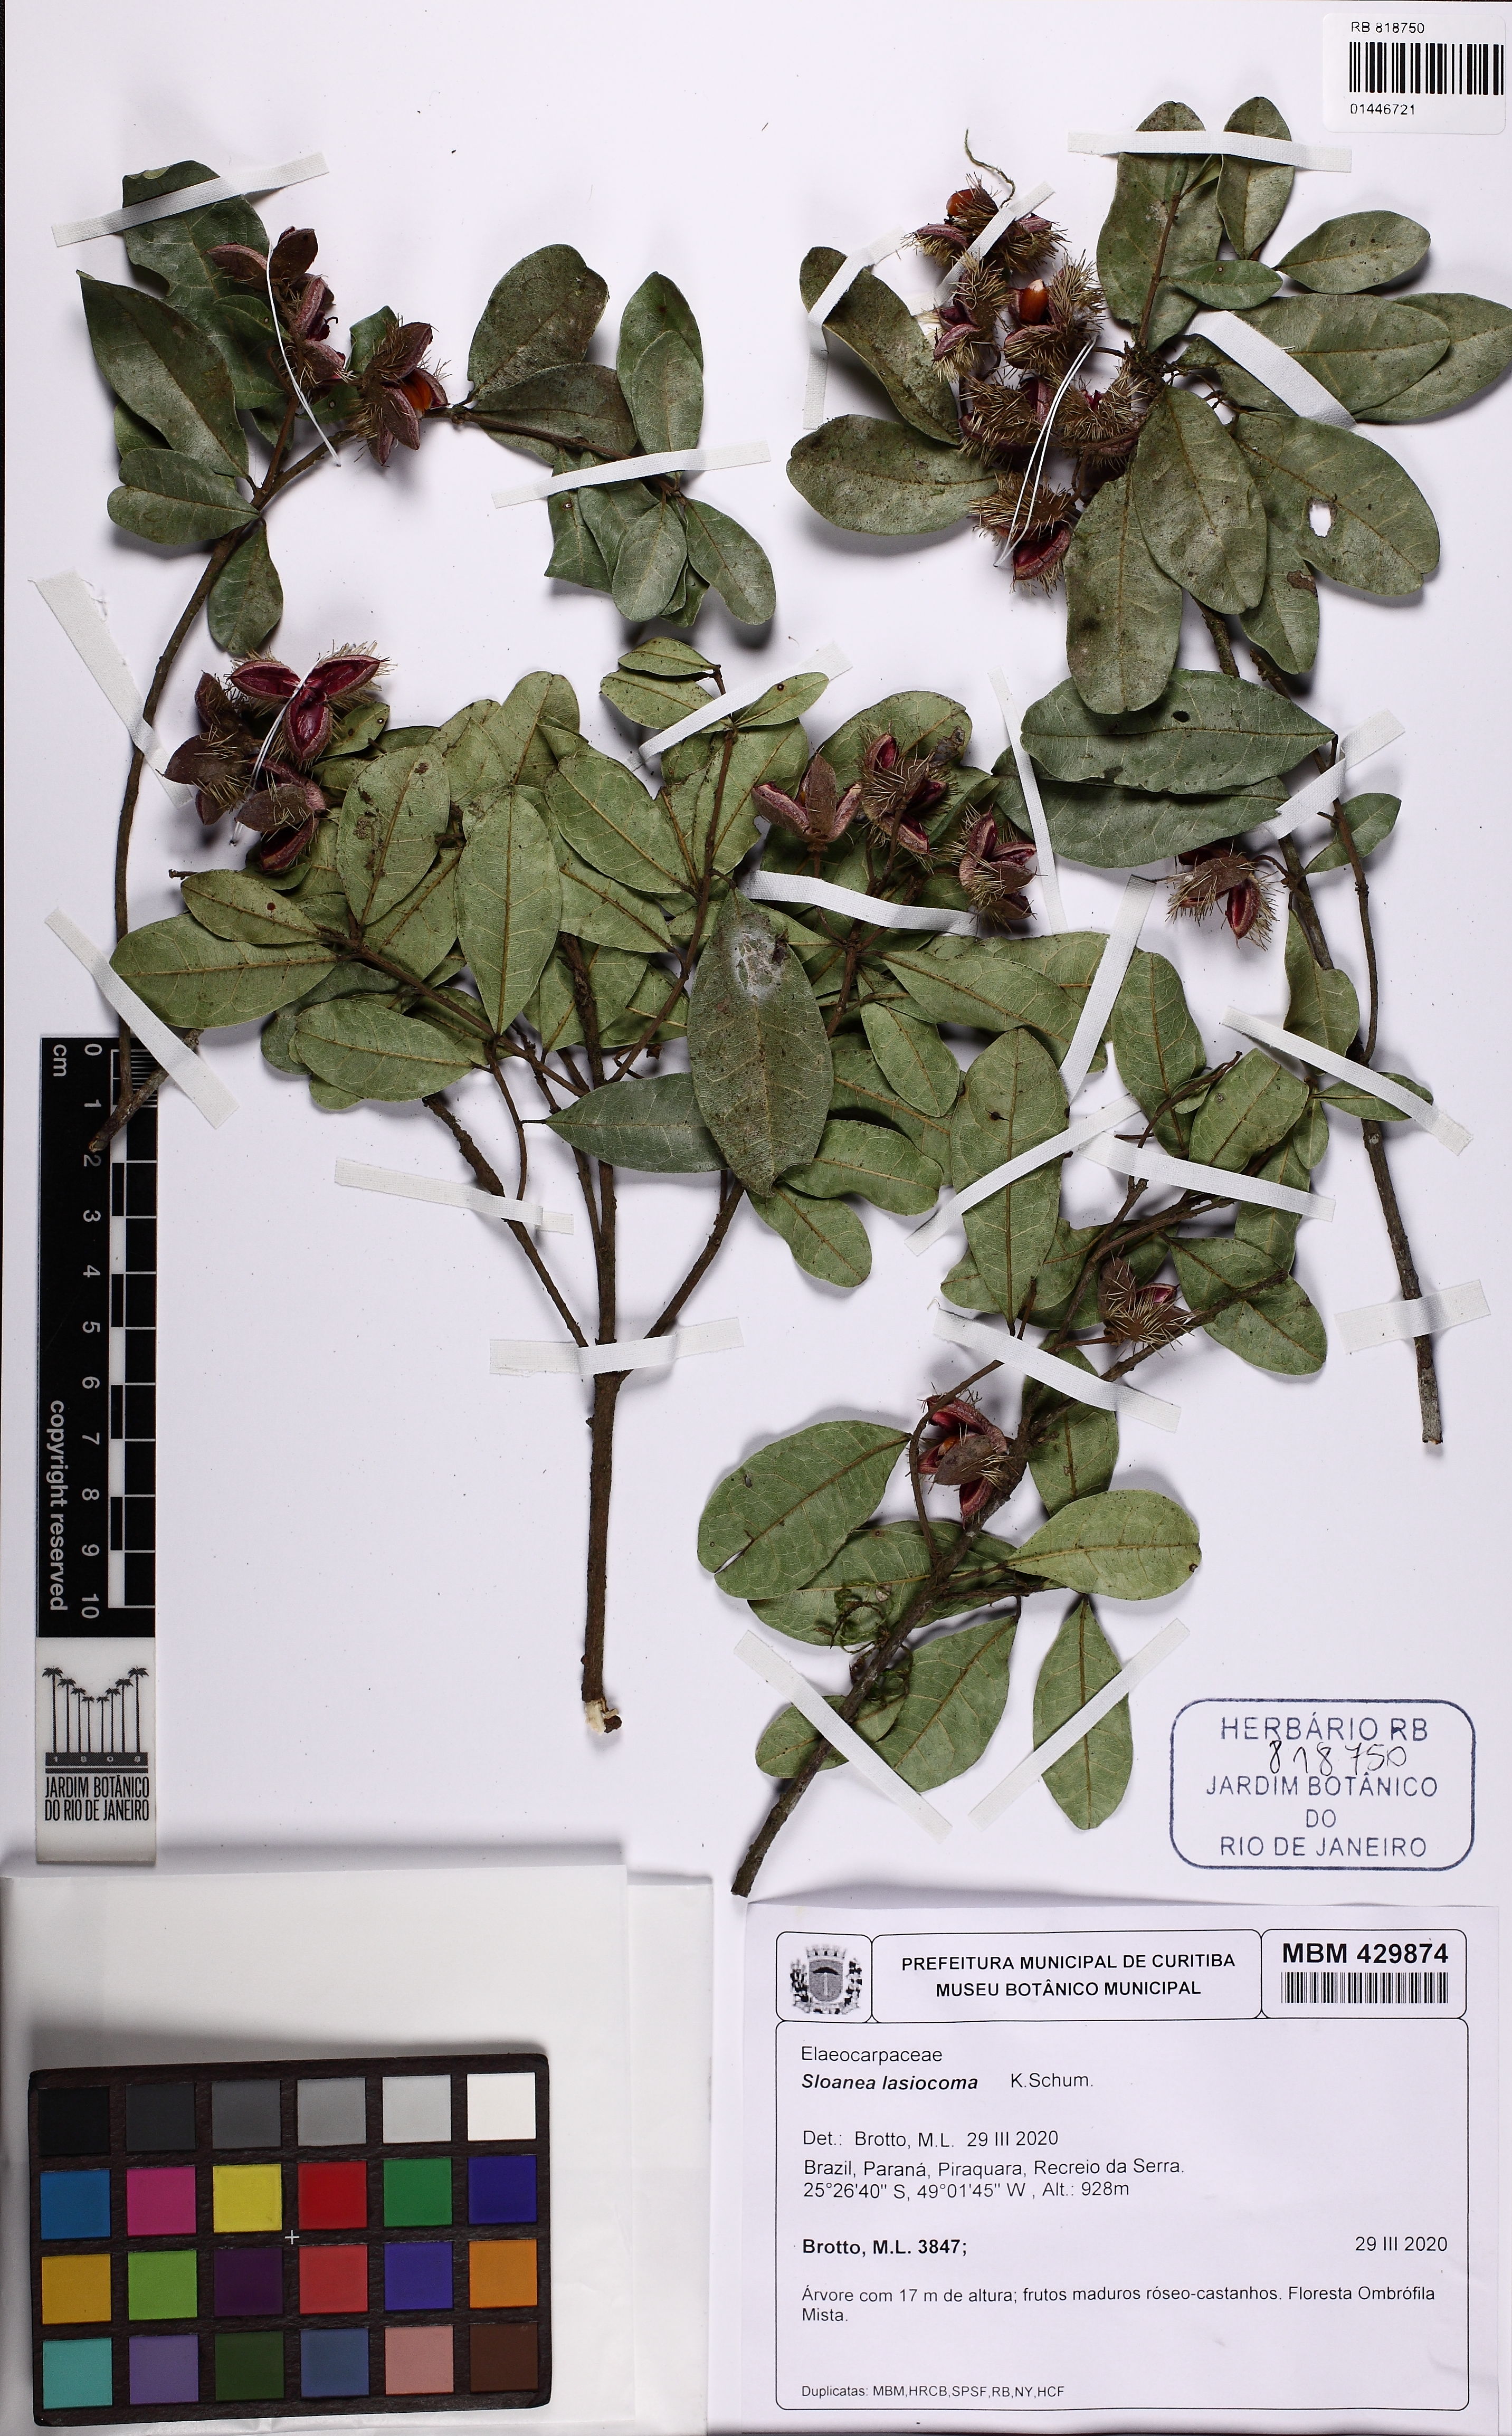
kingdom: Plantae
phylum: Tracheophyta
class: Magnoliopsida
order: Oxalidales
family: Elaeocarpaceae
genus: Sloanea
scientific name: Sloanea hirsuta
